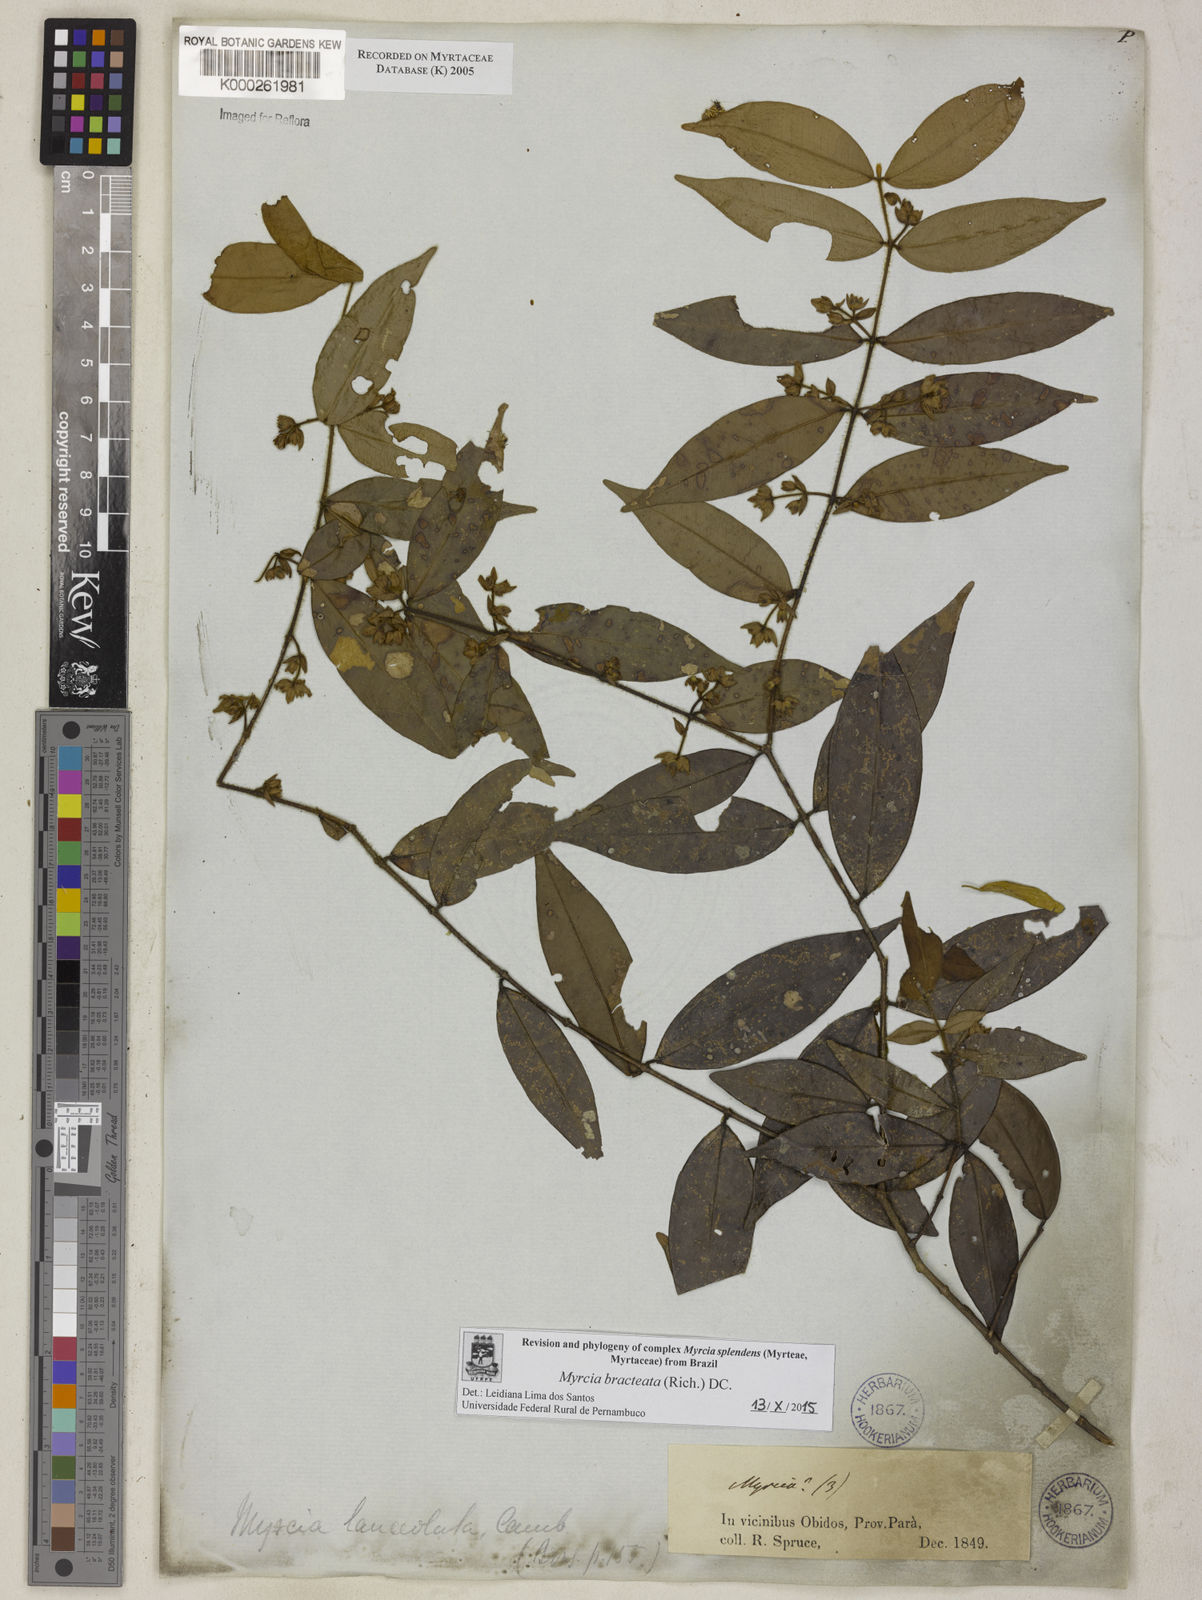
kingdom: Plantae
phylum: Tracheophyta
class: Magnoliopsida
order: Myrtales
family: Myrtaceae
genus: Myrcia
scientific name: Myrcia bracteata
